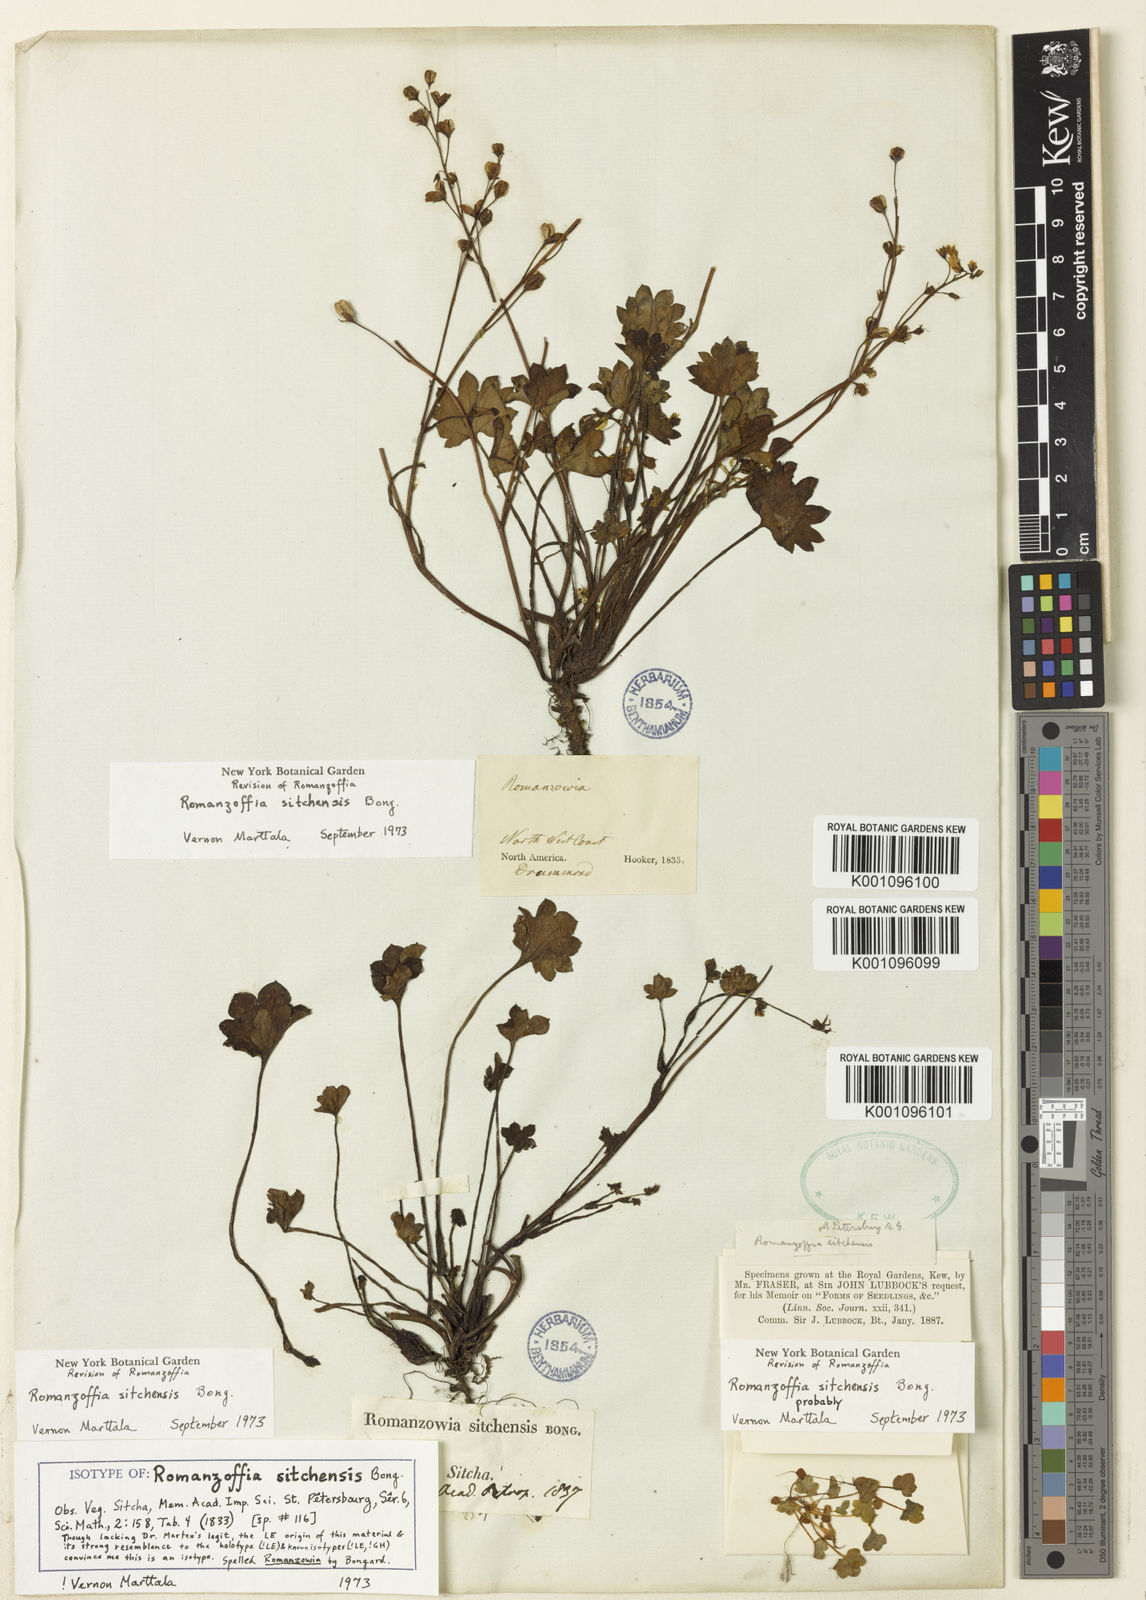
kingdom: Plantae
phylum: Tracheophyta
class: Magnoliopsida
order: Boraginales
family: Hydrophyllaceae
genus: Romanzoffia
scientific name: Romanzoffia sitchensis
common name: Sitka mistmaid
